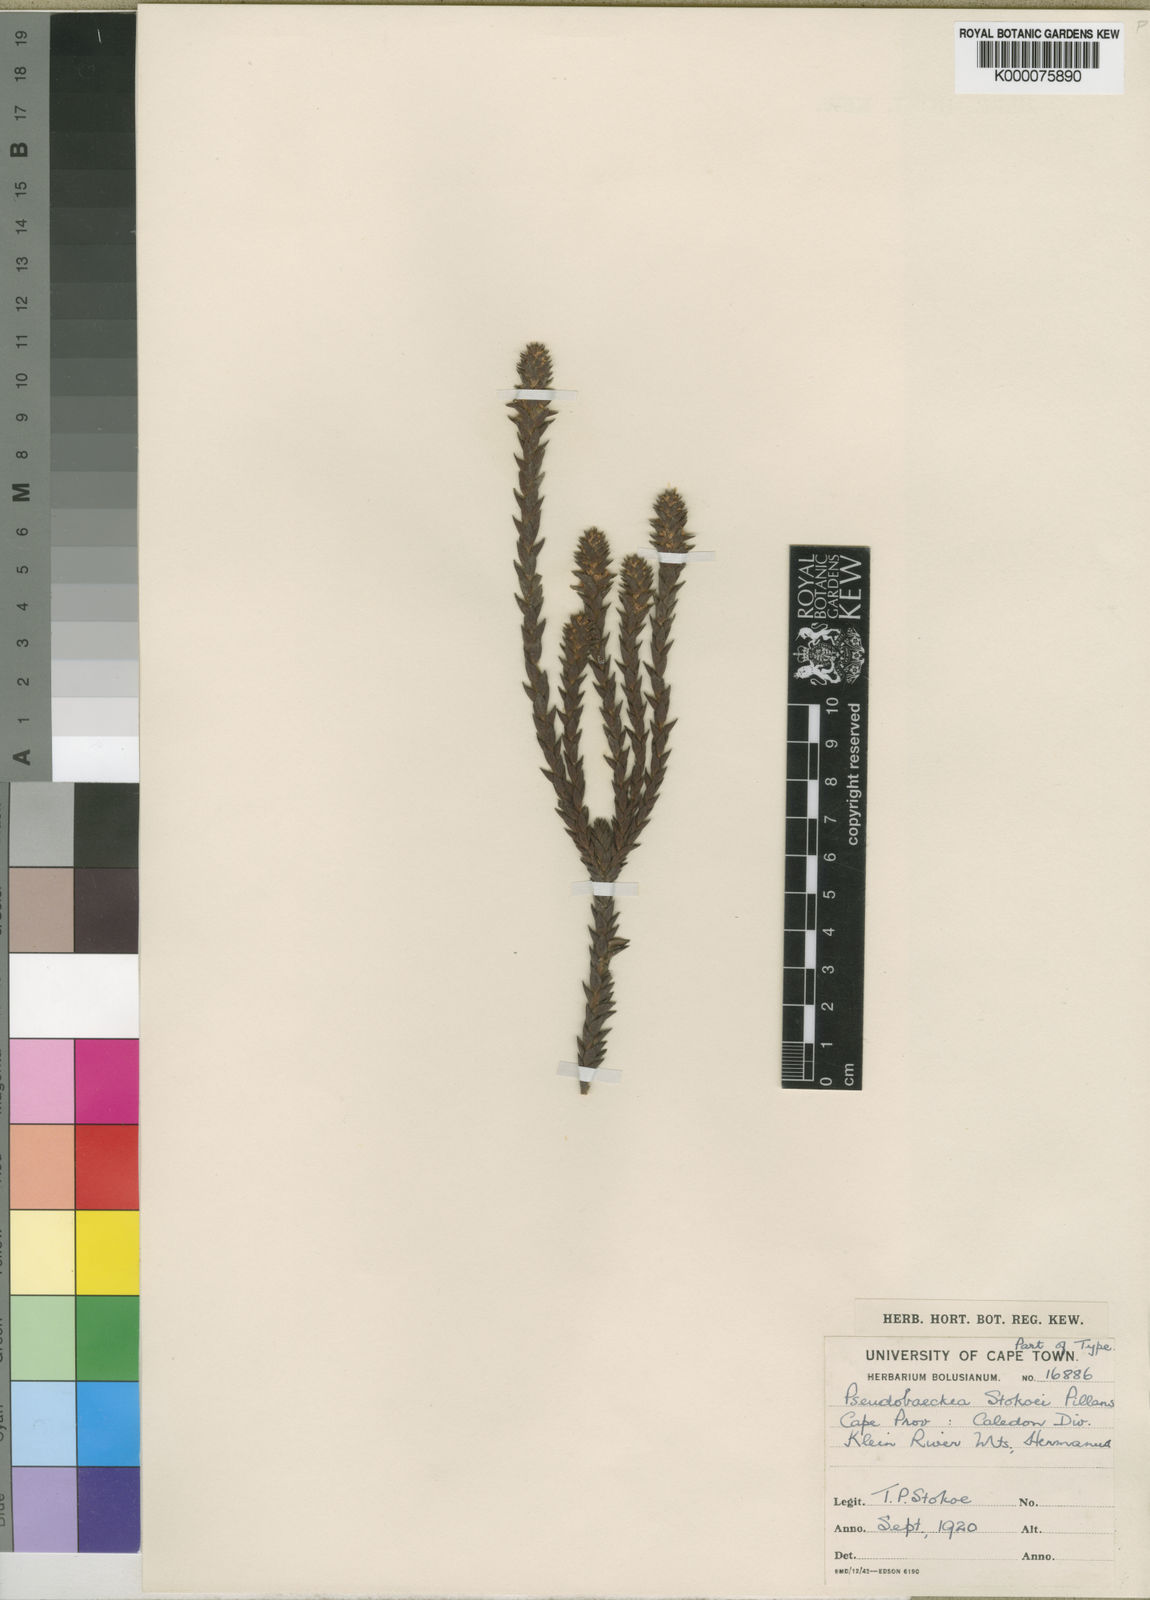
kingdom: Plantae
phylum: Tracheophyta
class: Magnoliopsida
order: Bruniales
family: Bruniaceae
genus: Brunia
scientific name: Brunia pillansii
